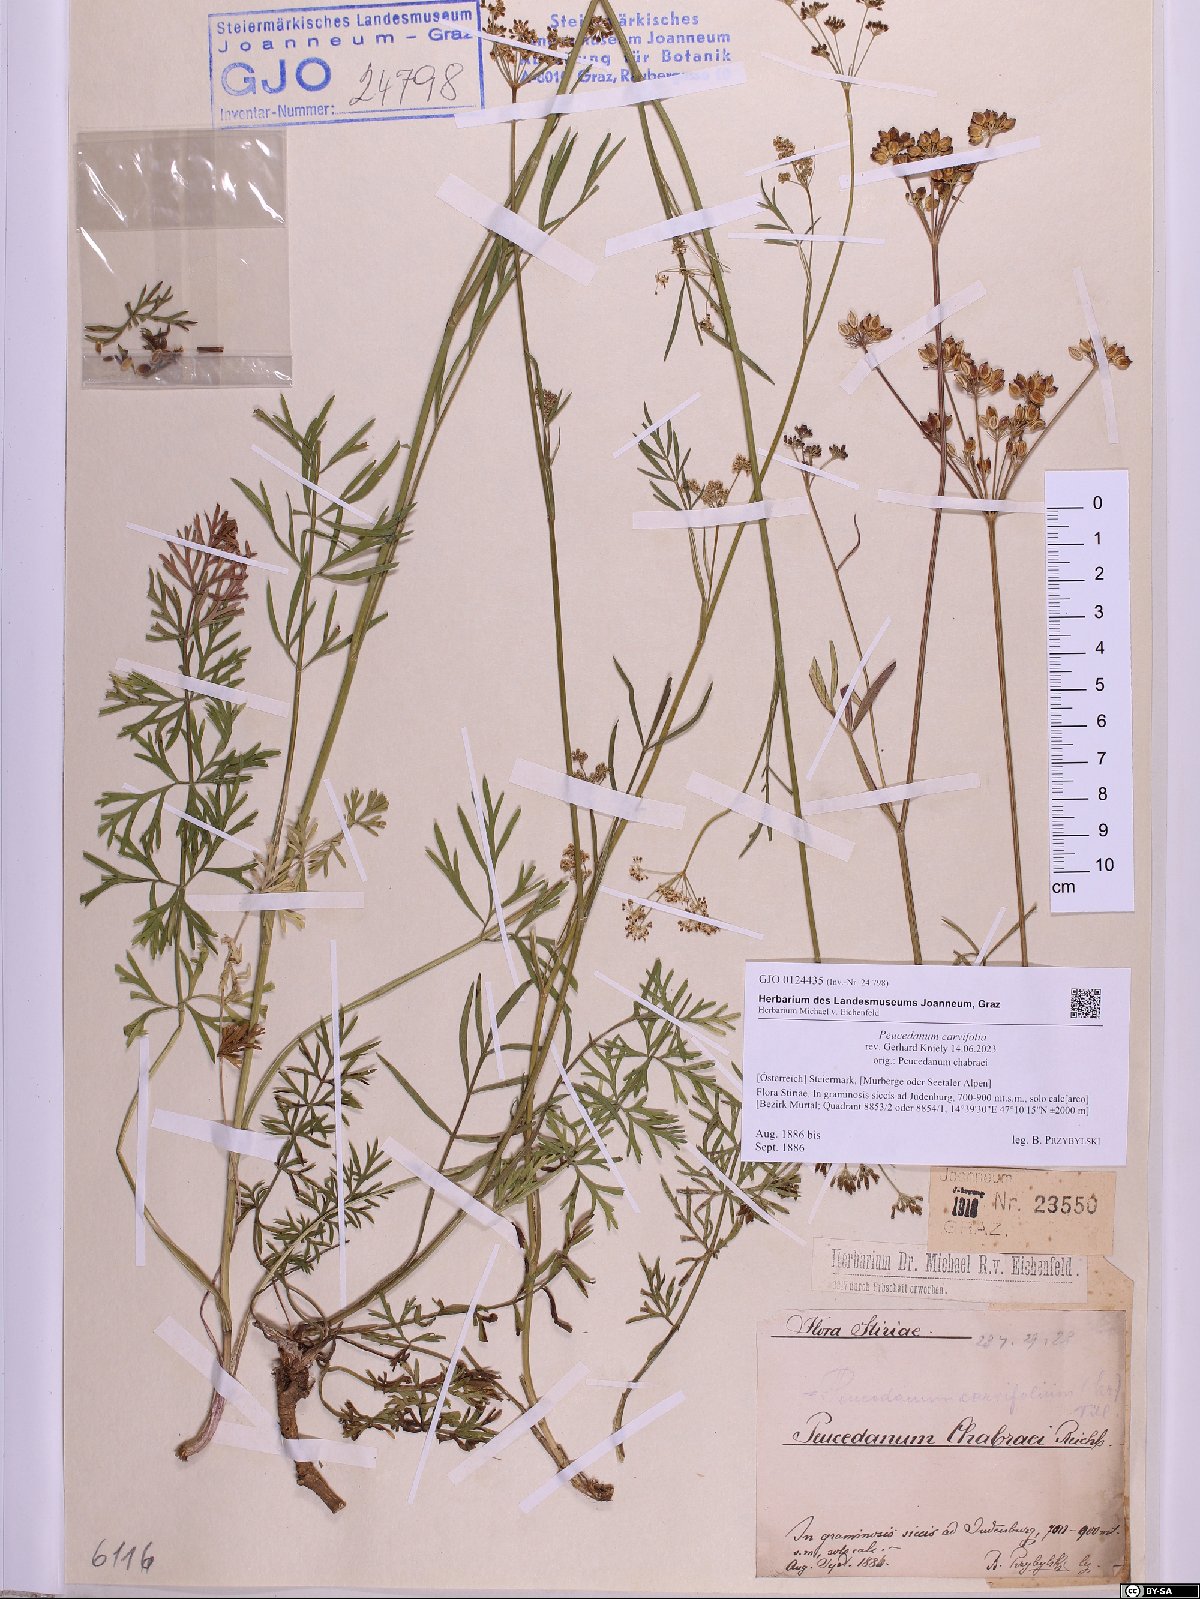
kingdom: Plantae
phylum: Tracheophyta
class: Magnoliopsida
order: Apiales
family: Apiaceae
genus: Dichoropetalum
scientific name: Dichoropetalum carvifolia
